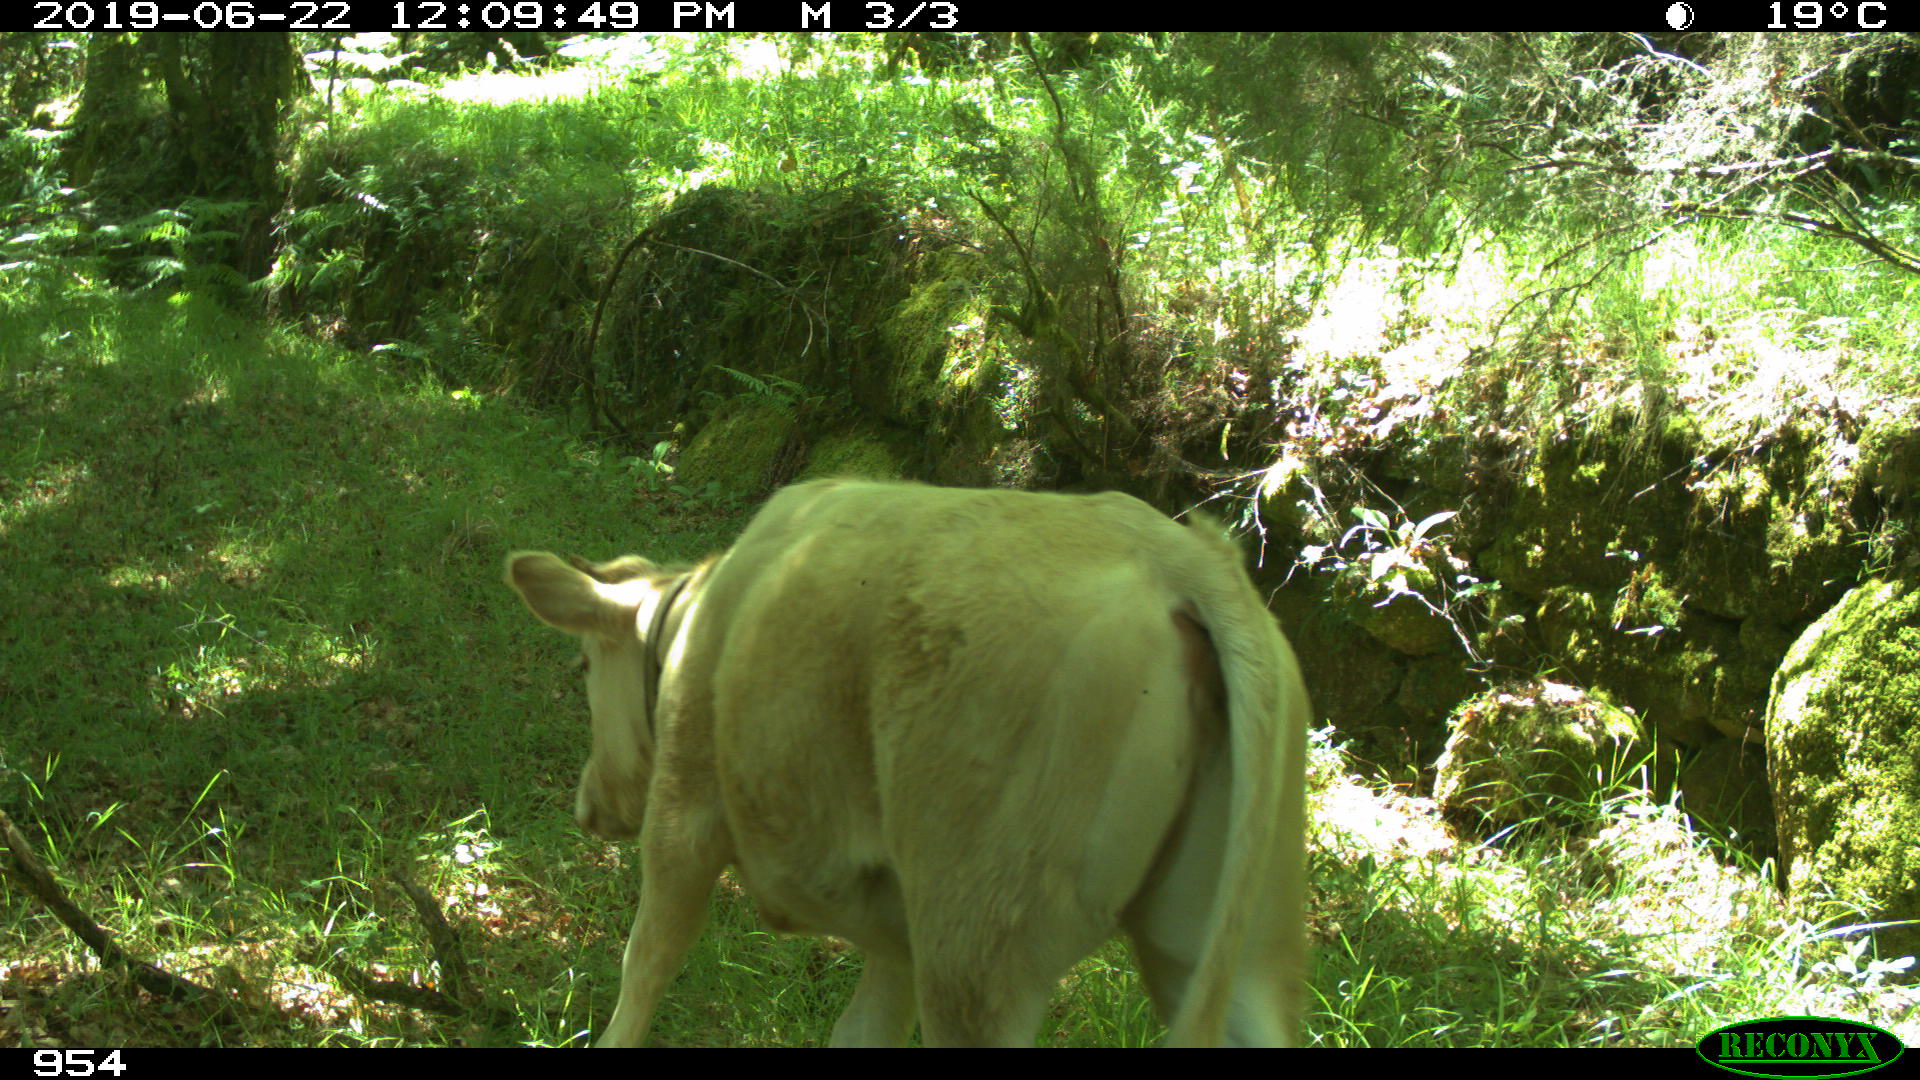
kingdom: Animalia
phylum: Chordata
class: Mammalia
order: Artiodactyla
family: Bovidae
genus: Bos
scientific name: Bos taurus
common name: Domesticated cattle
